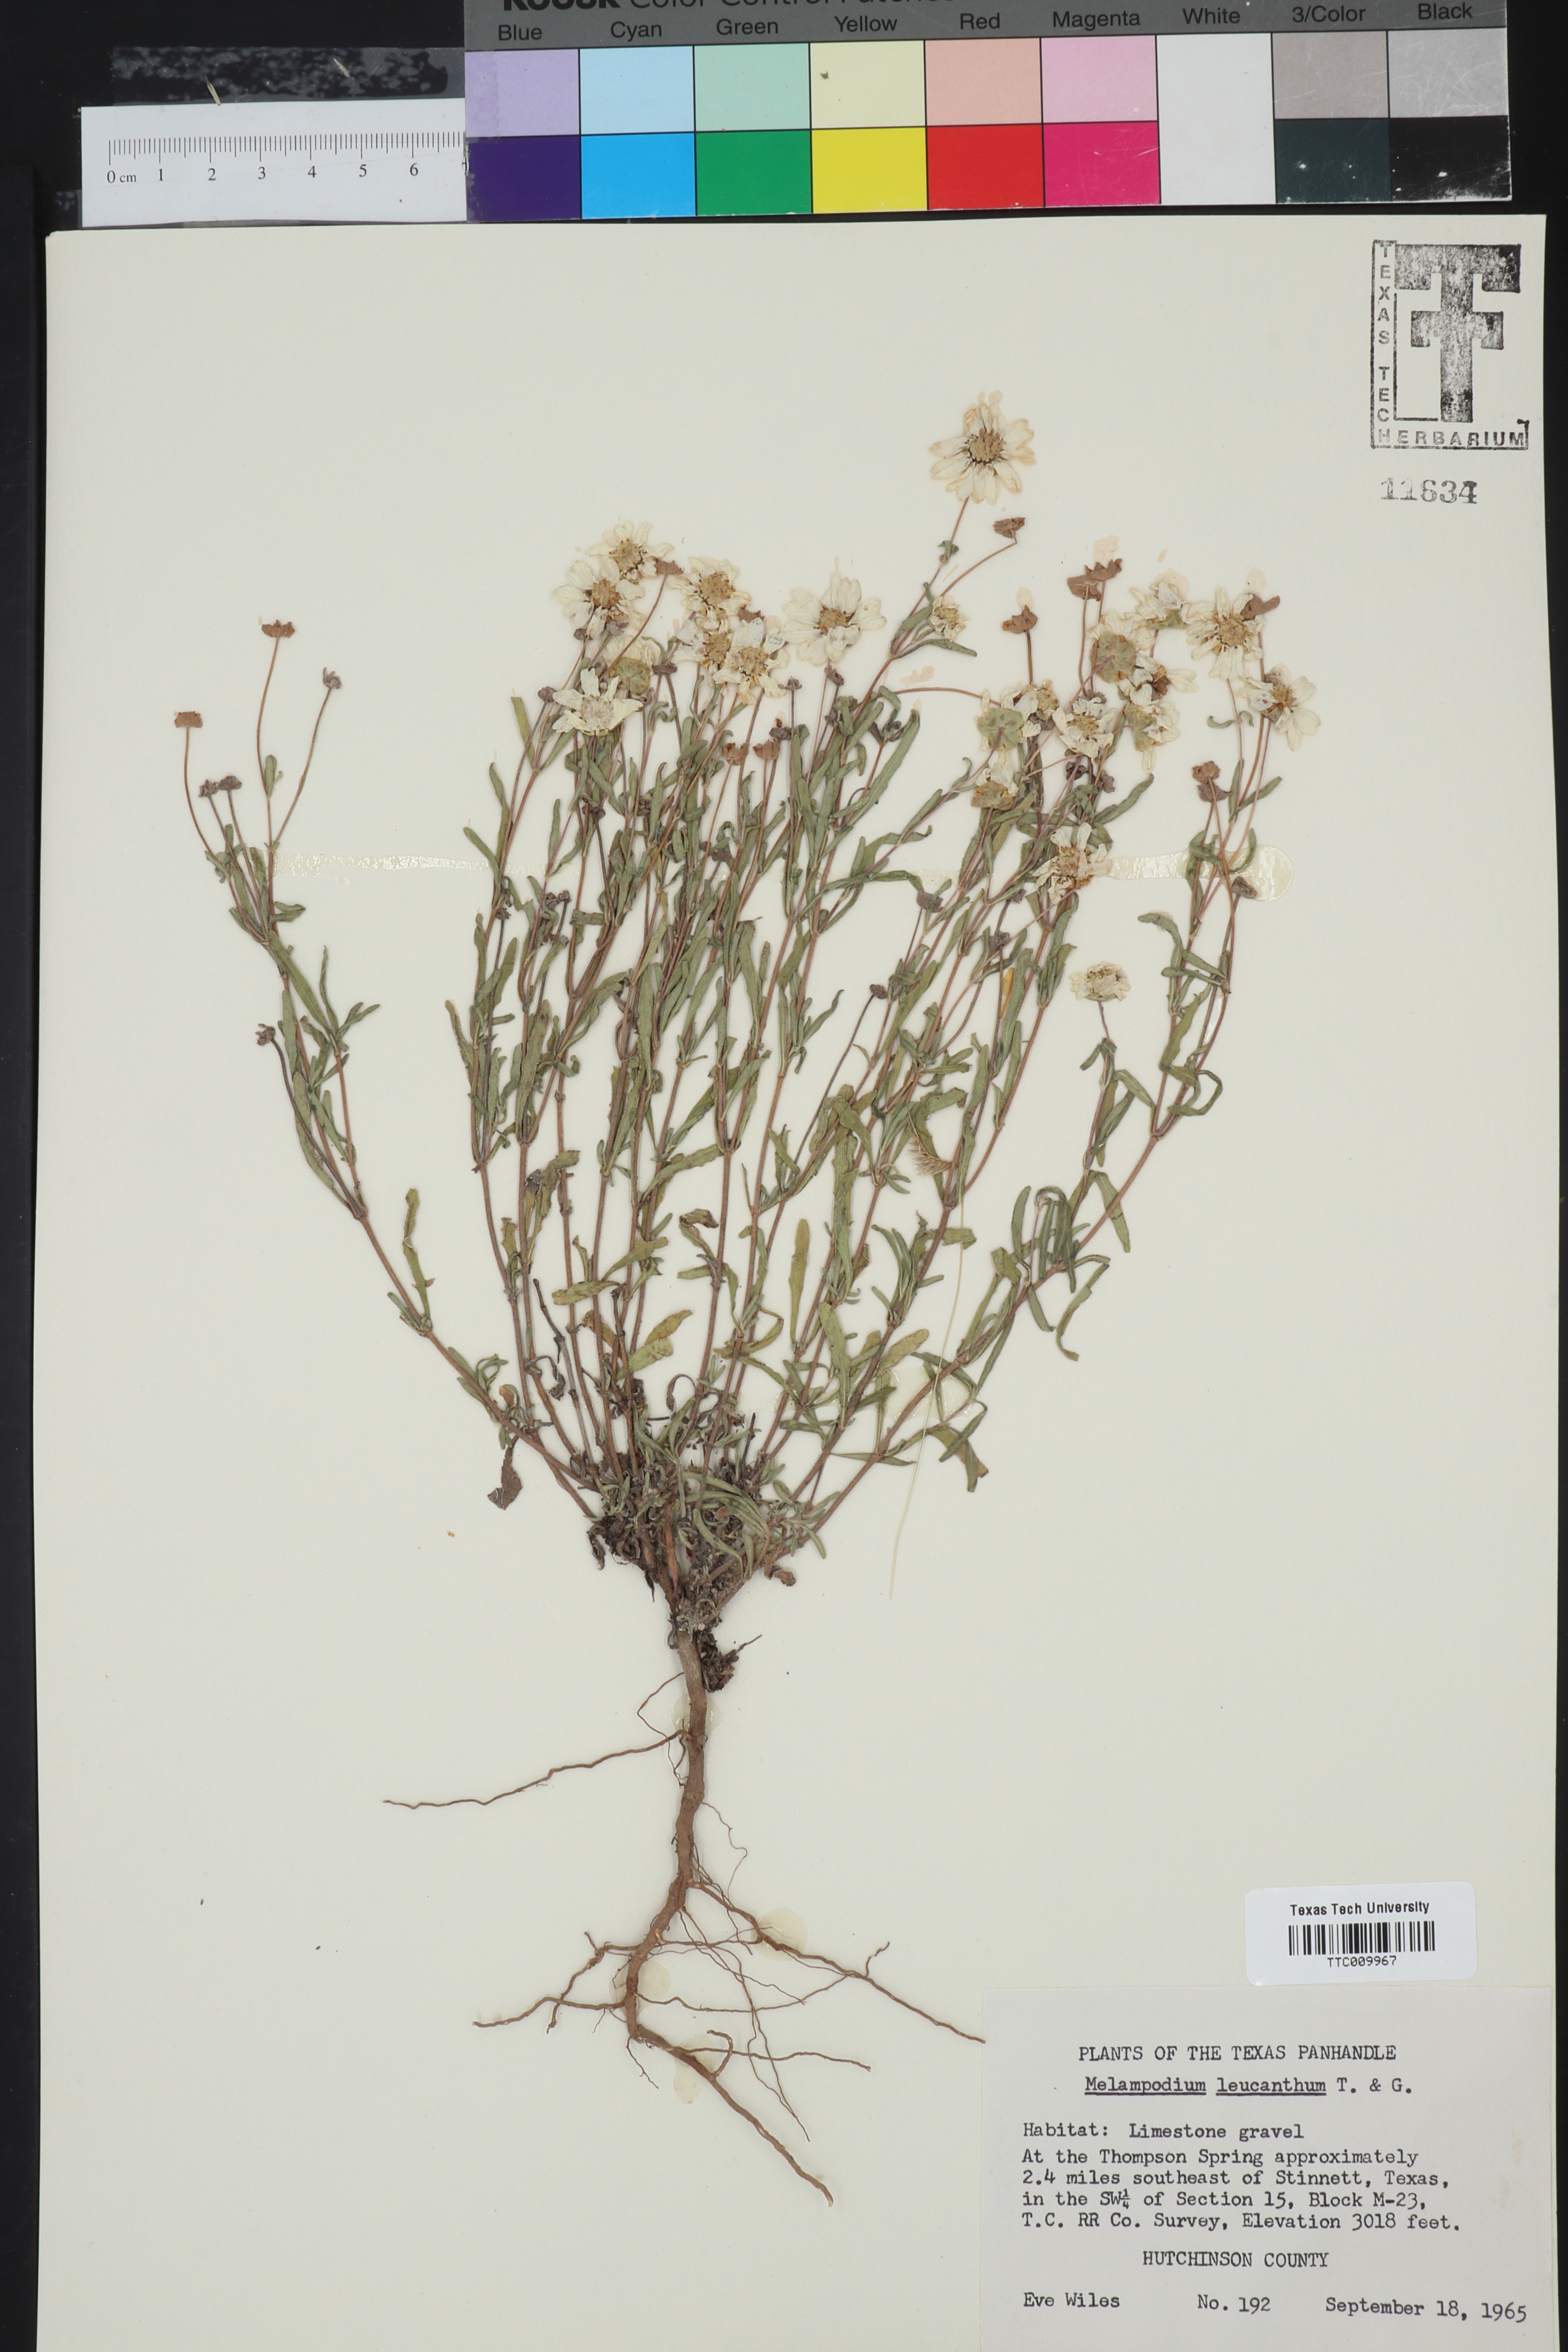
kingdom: Plantae
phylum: Tracheophyta
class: Magnoliopsida
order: Asterales
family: Asteraceae
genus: Melampodium
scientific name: Melampodium leucanthum
